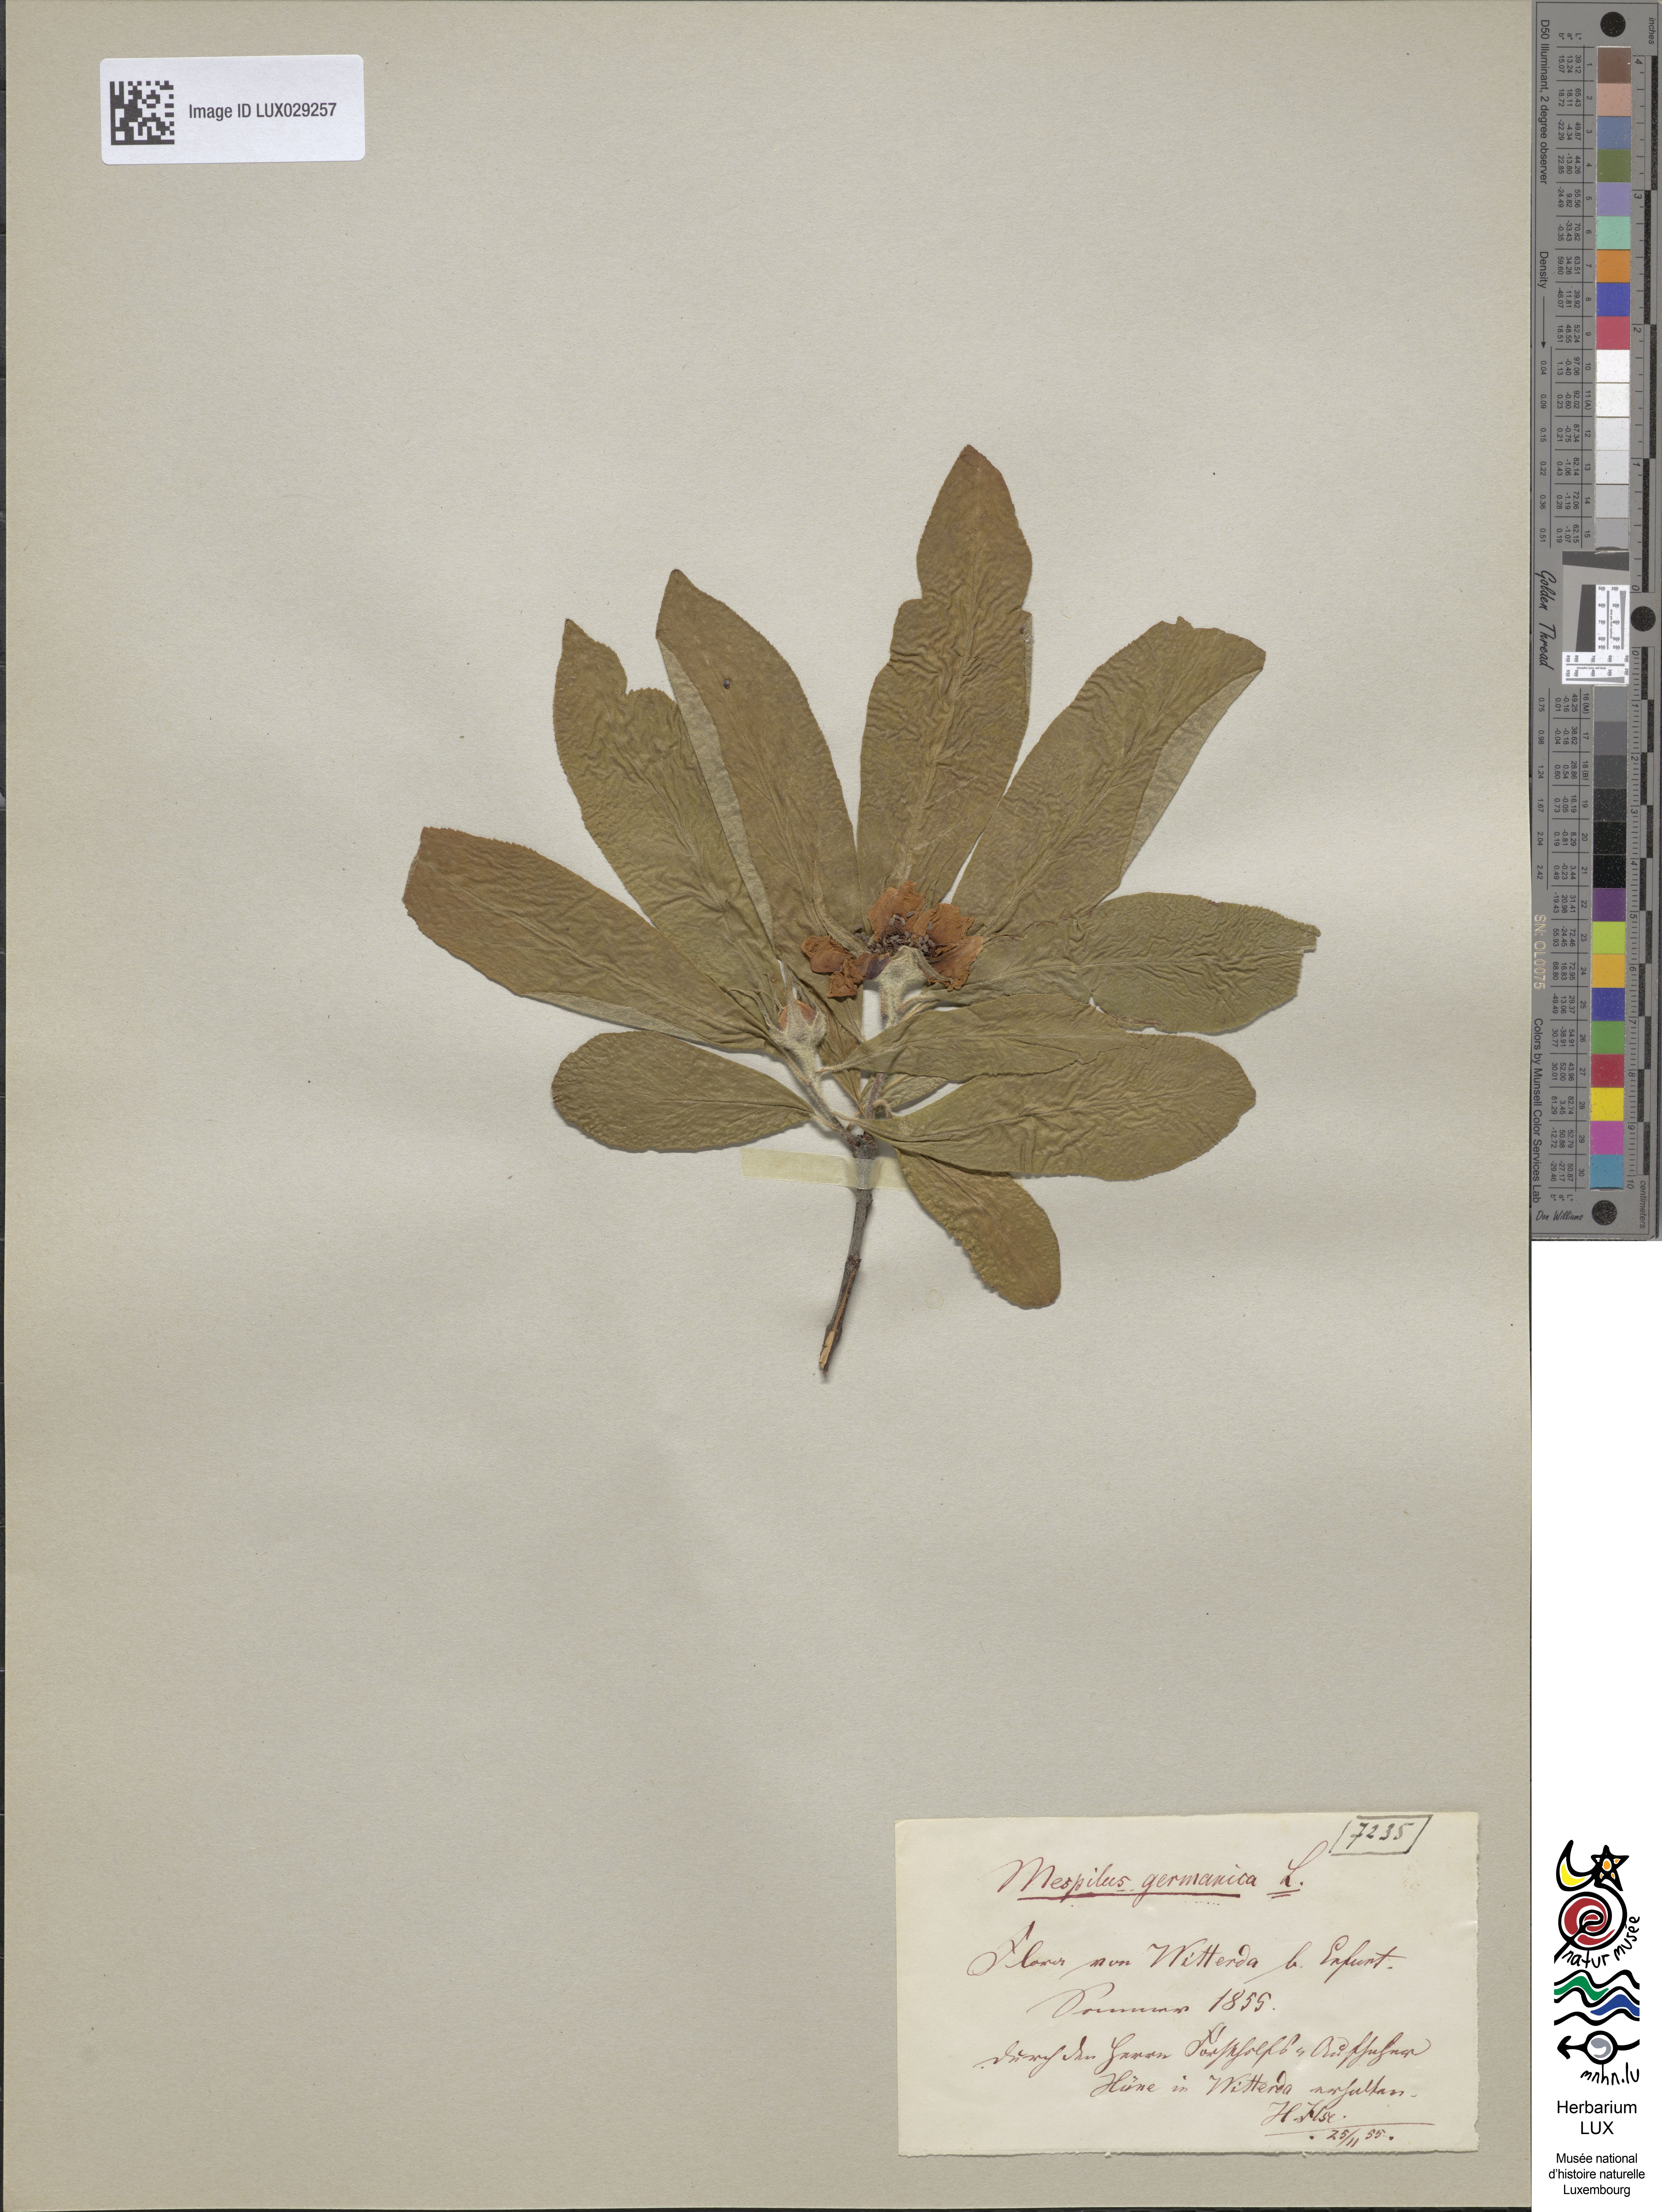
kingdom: Plantae
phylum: Tracheophyta
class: Magnoliopsida
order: Rosales
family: Rosaceae
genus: Mespilus
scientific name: Mespilus germanica
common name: Medlar
